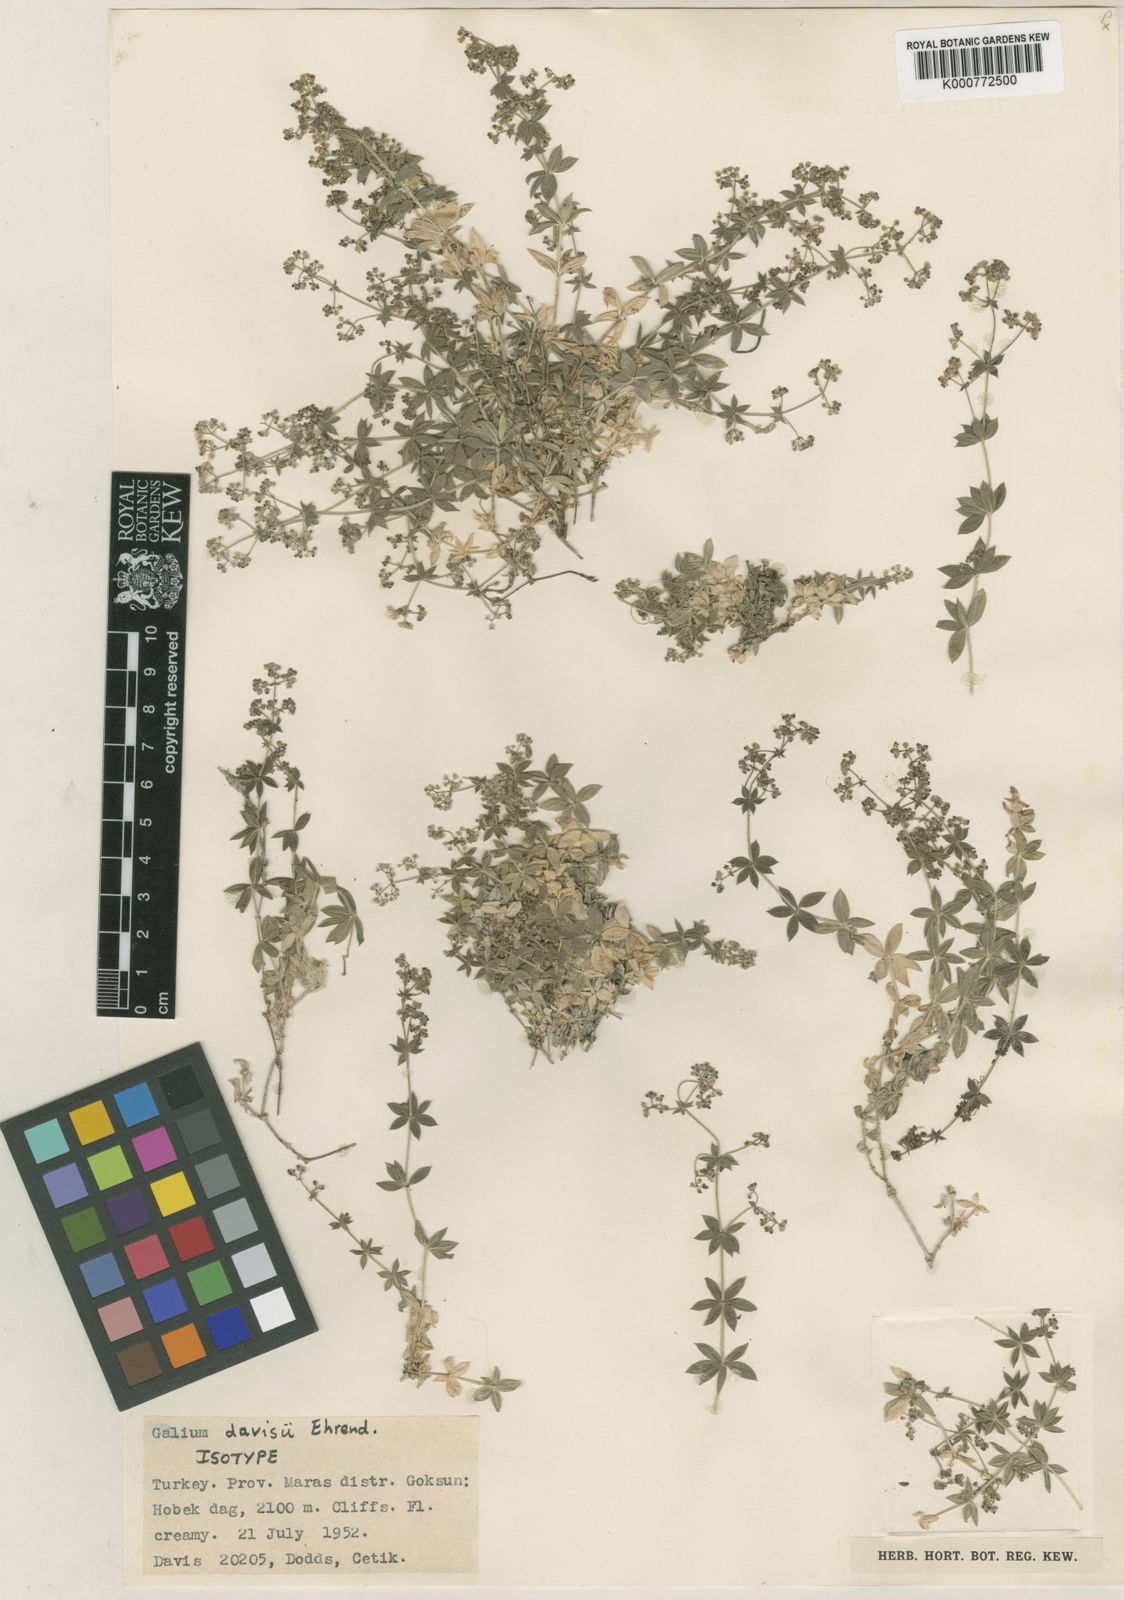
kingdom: Plantae
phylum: Tracheophyta
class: Magnoliopsida
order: Gentianales
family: Rubiaceae
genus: Galium
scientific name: Galium davisii
